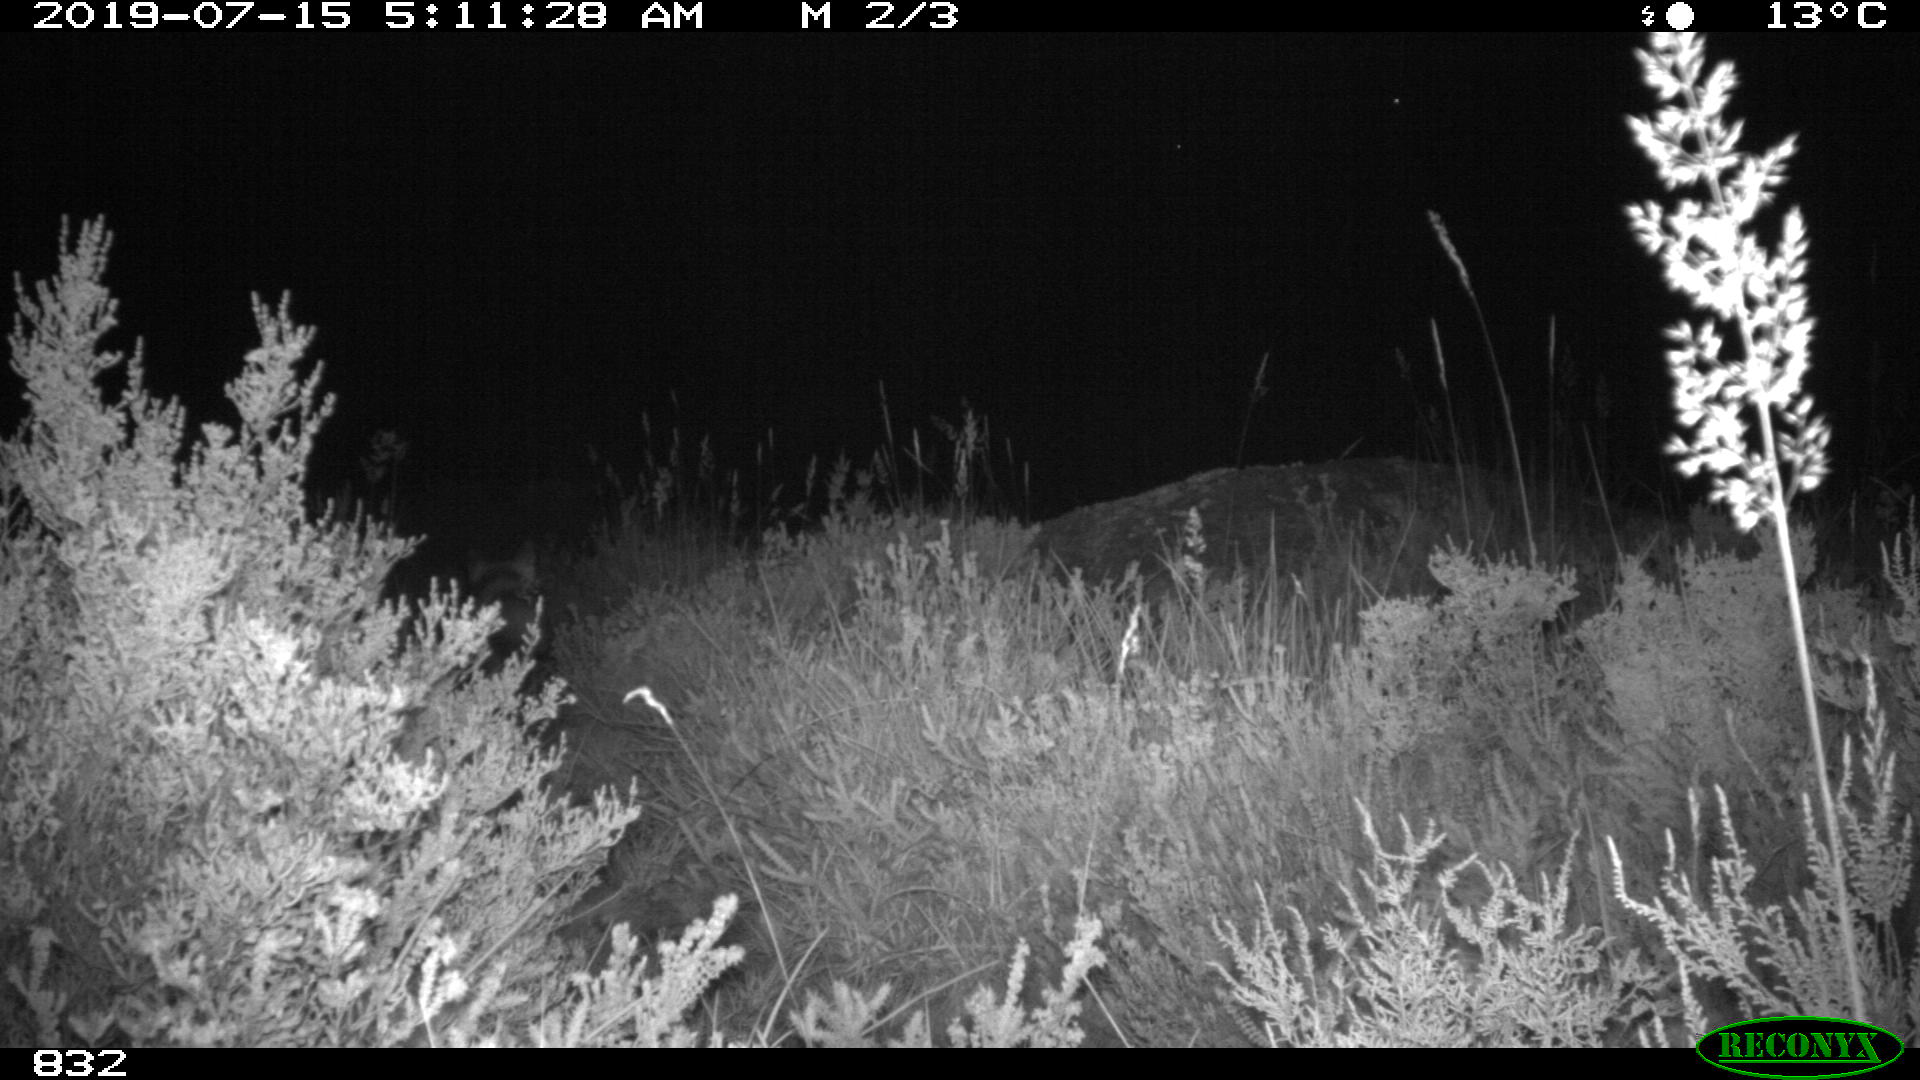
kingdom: Animalia
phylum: Chordata
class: Mammalia
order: Carnivora
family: Canidae
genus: Vulpes
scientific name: Vulpes vulpes
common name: Red fox
